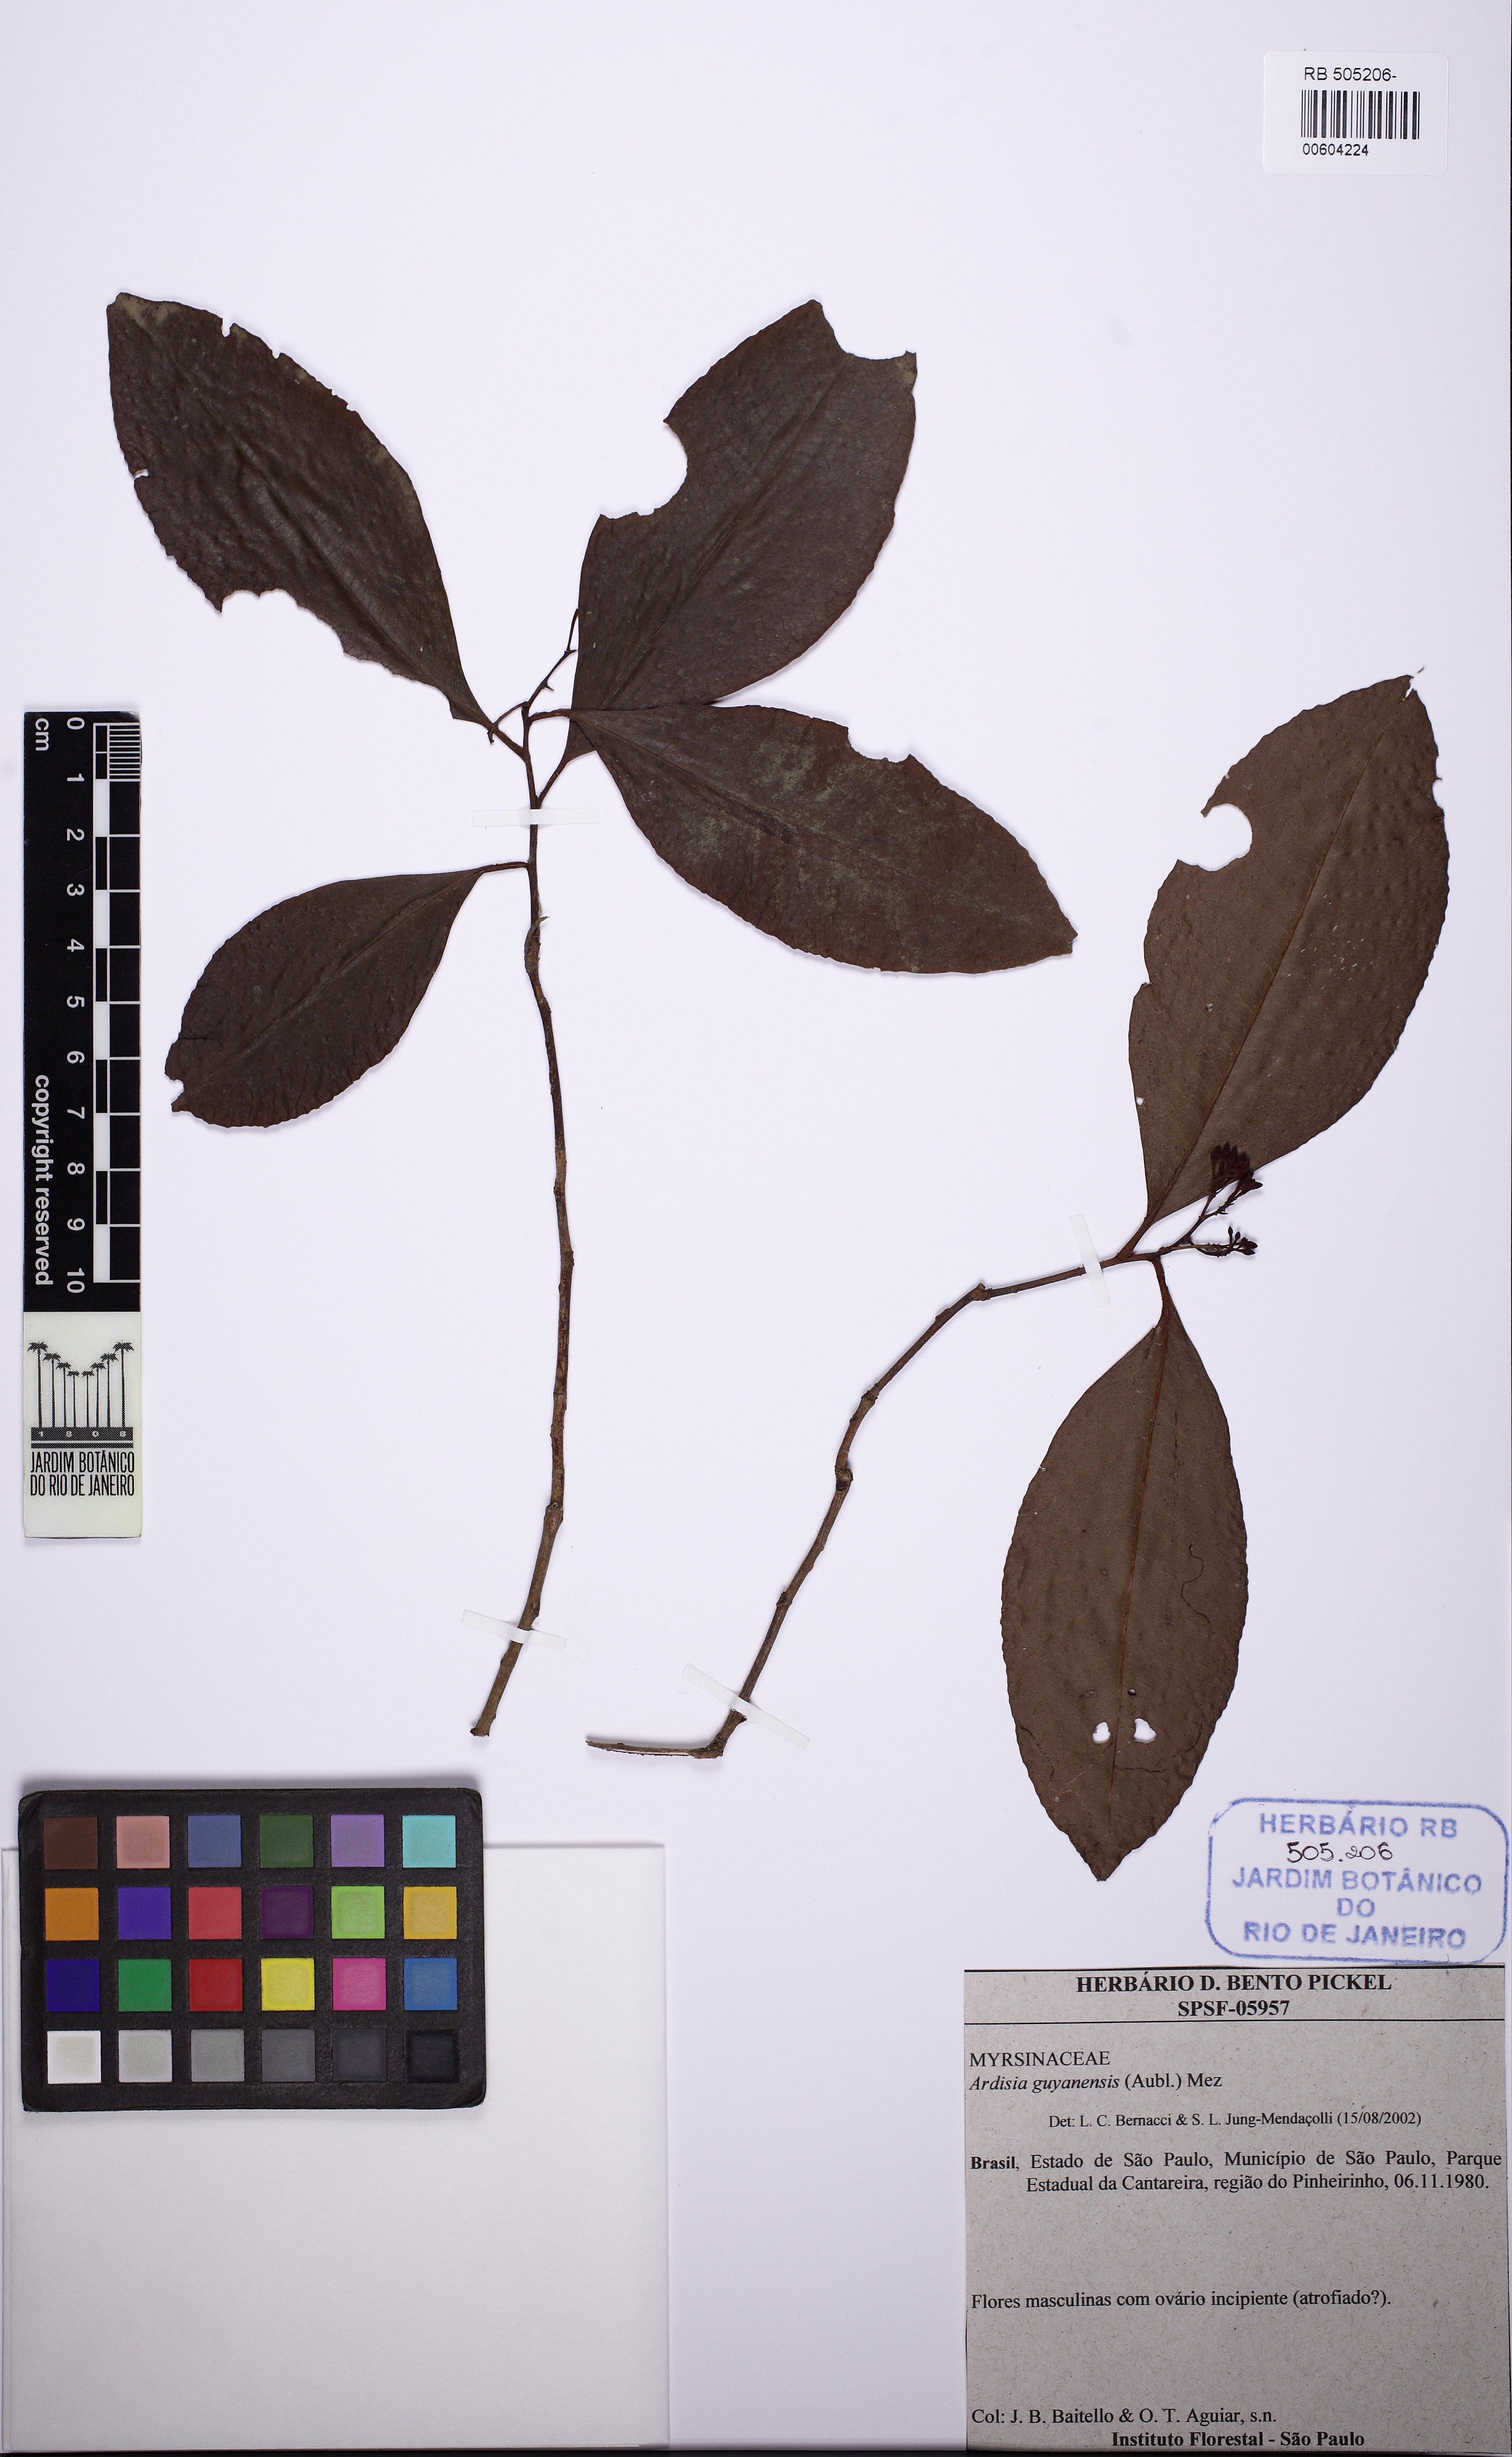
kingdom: Plantae
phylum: Tracheophyta
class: Magnoliopsida
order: Ericales
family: Primulaceae
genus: Ardisia
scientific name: Ardisia guianensis
